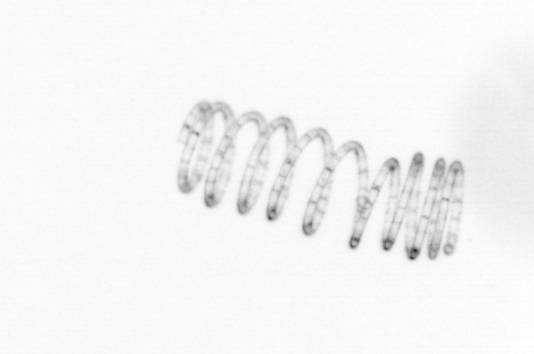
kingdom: Chromista
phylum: Ochrophyta
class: Bacillariophyceae
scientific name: Bacillariophyceae
